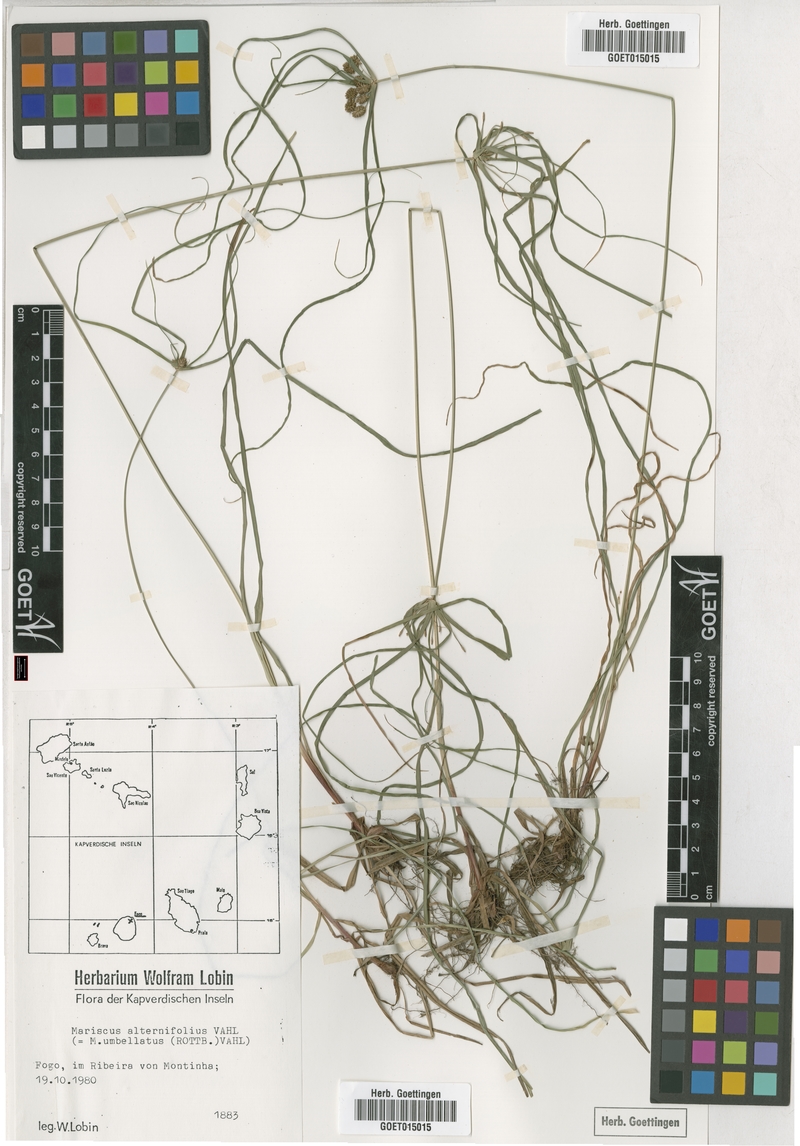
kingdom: Plantae
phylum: Tracheophyta
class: Liliopsida
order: Poales
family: Cyperaceae
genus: Cyperus
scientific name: Cyperus cyperoides
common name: Pacific island flat sedge
